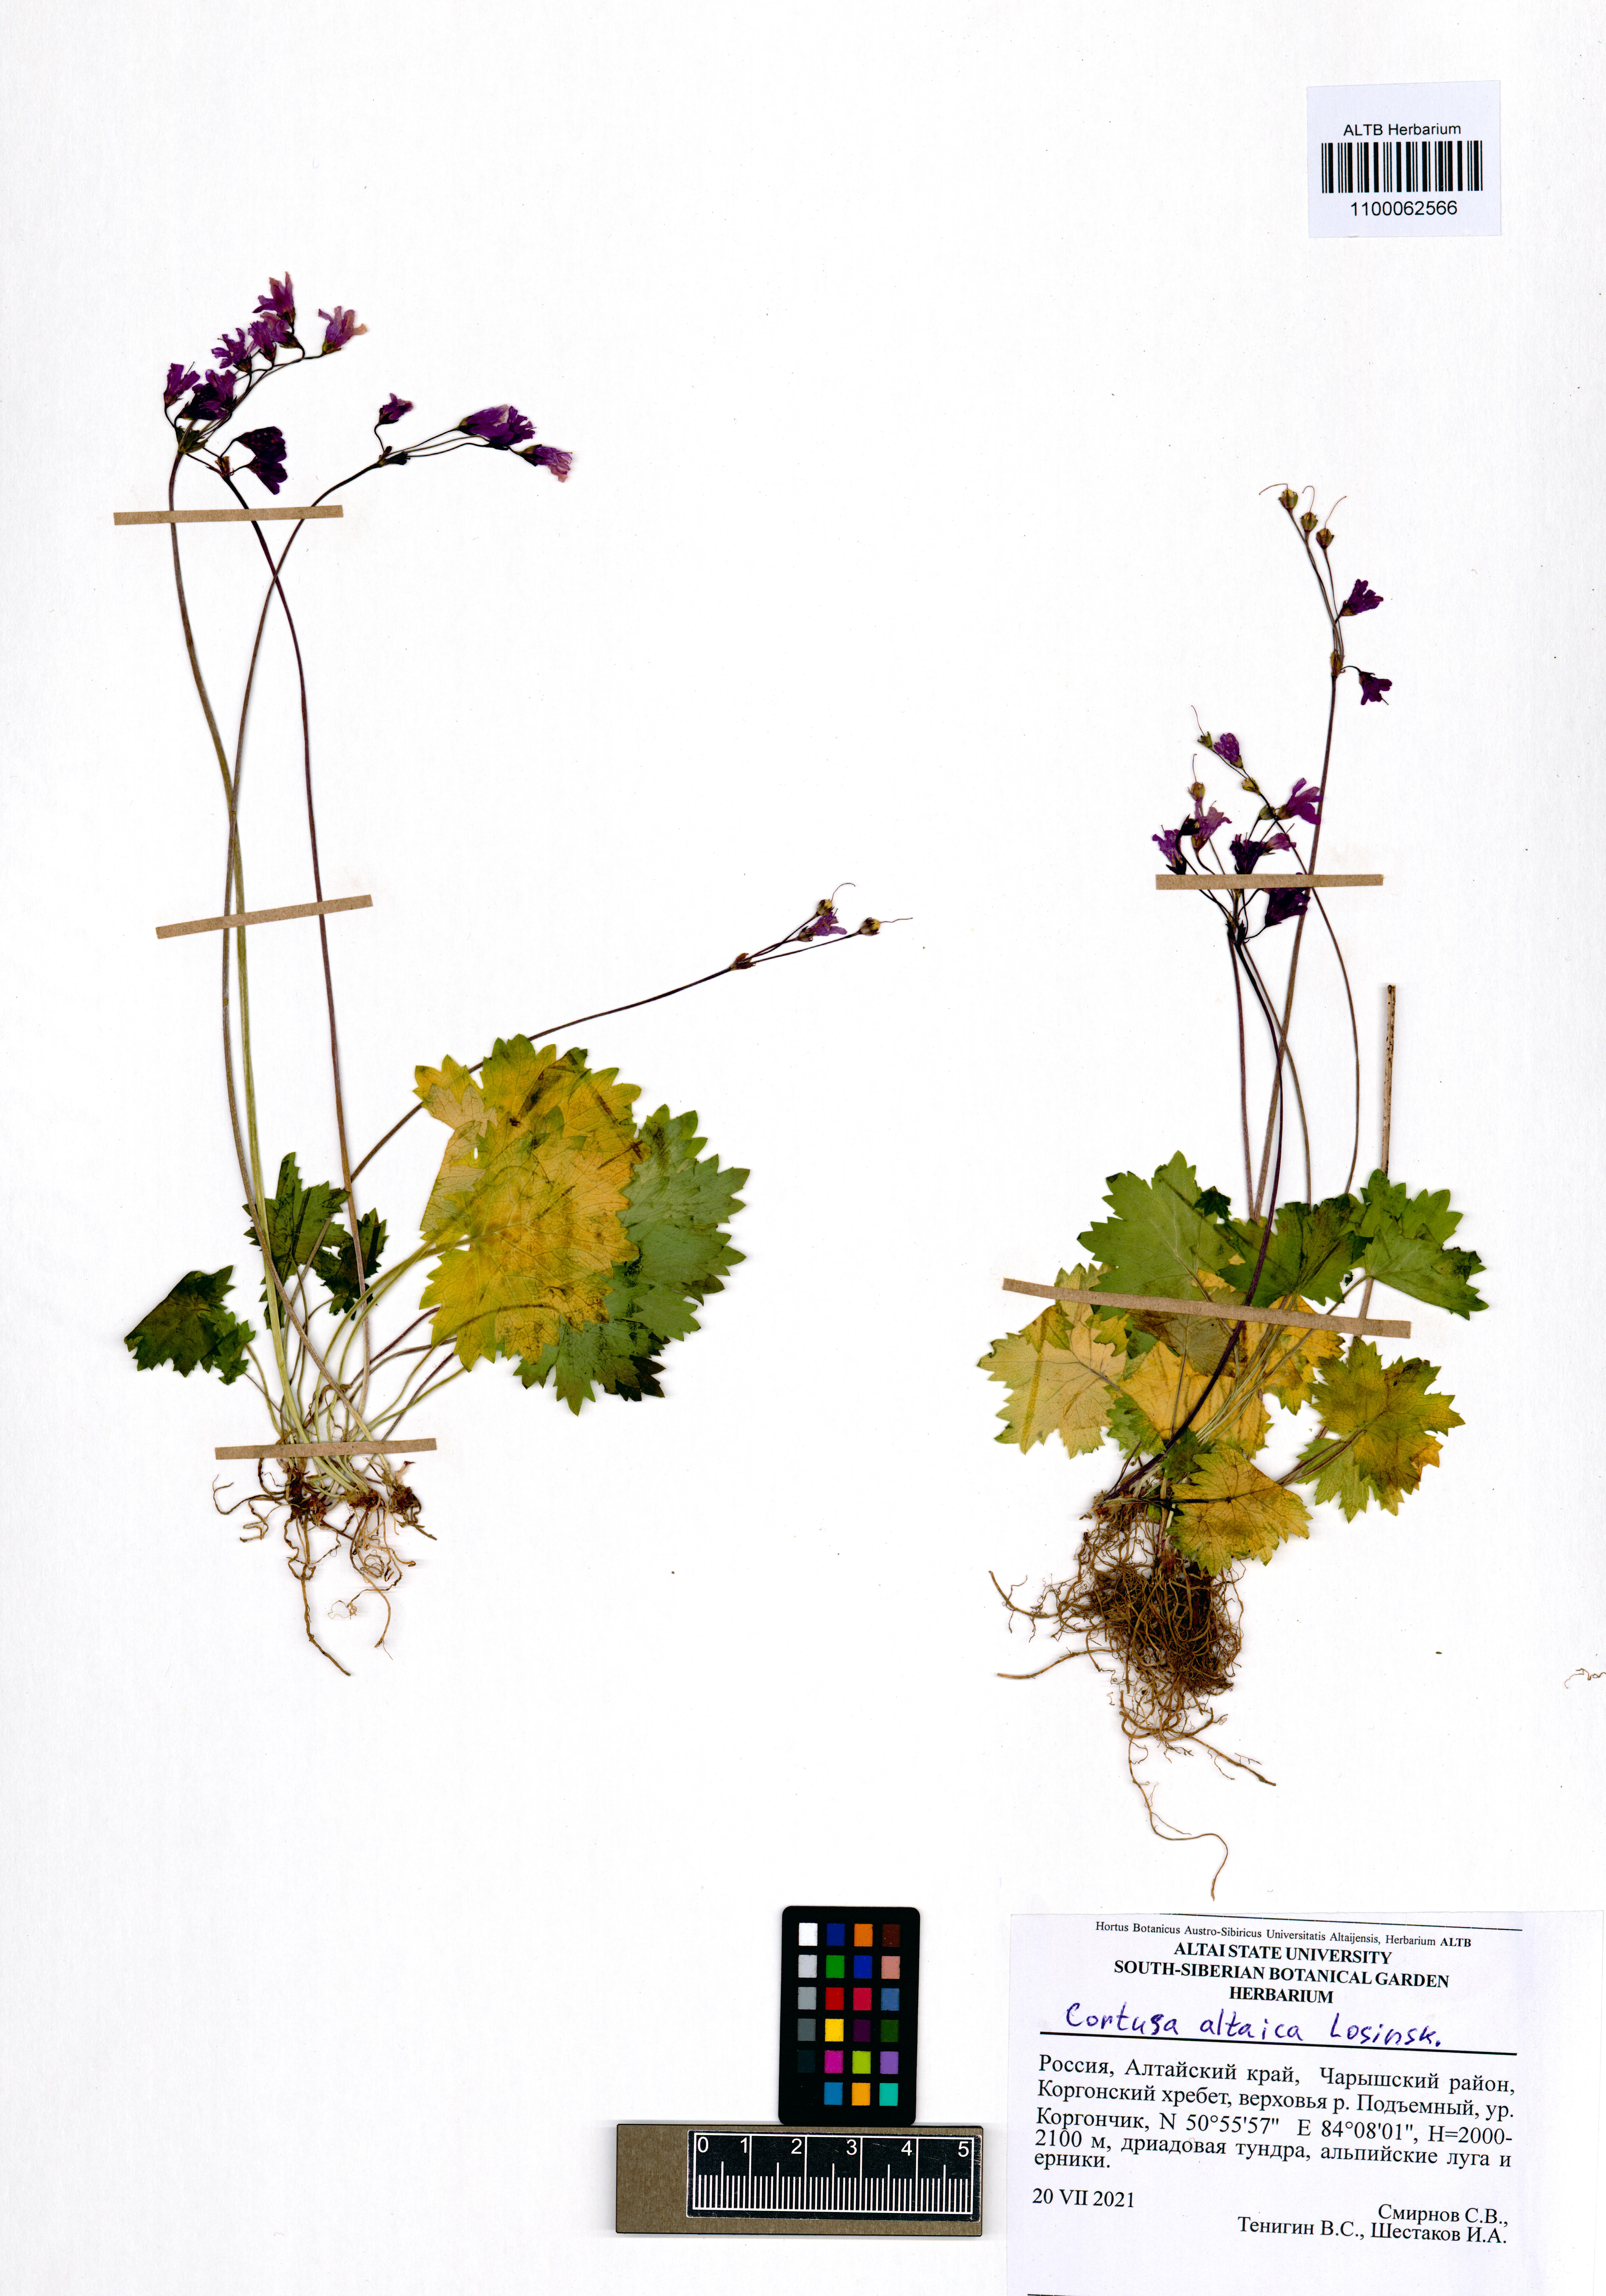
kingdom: Plantae
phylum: Tracheophyta
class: Magnoliopsida
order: Ericales
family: Primulaceae
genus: Primula
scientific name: Primula matthioli
